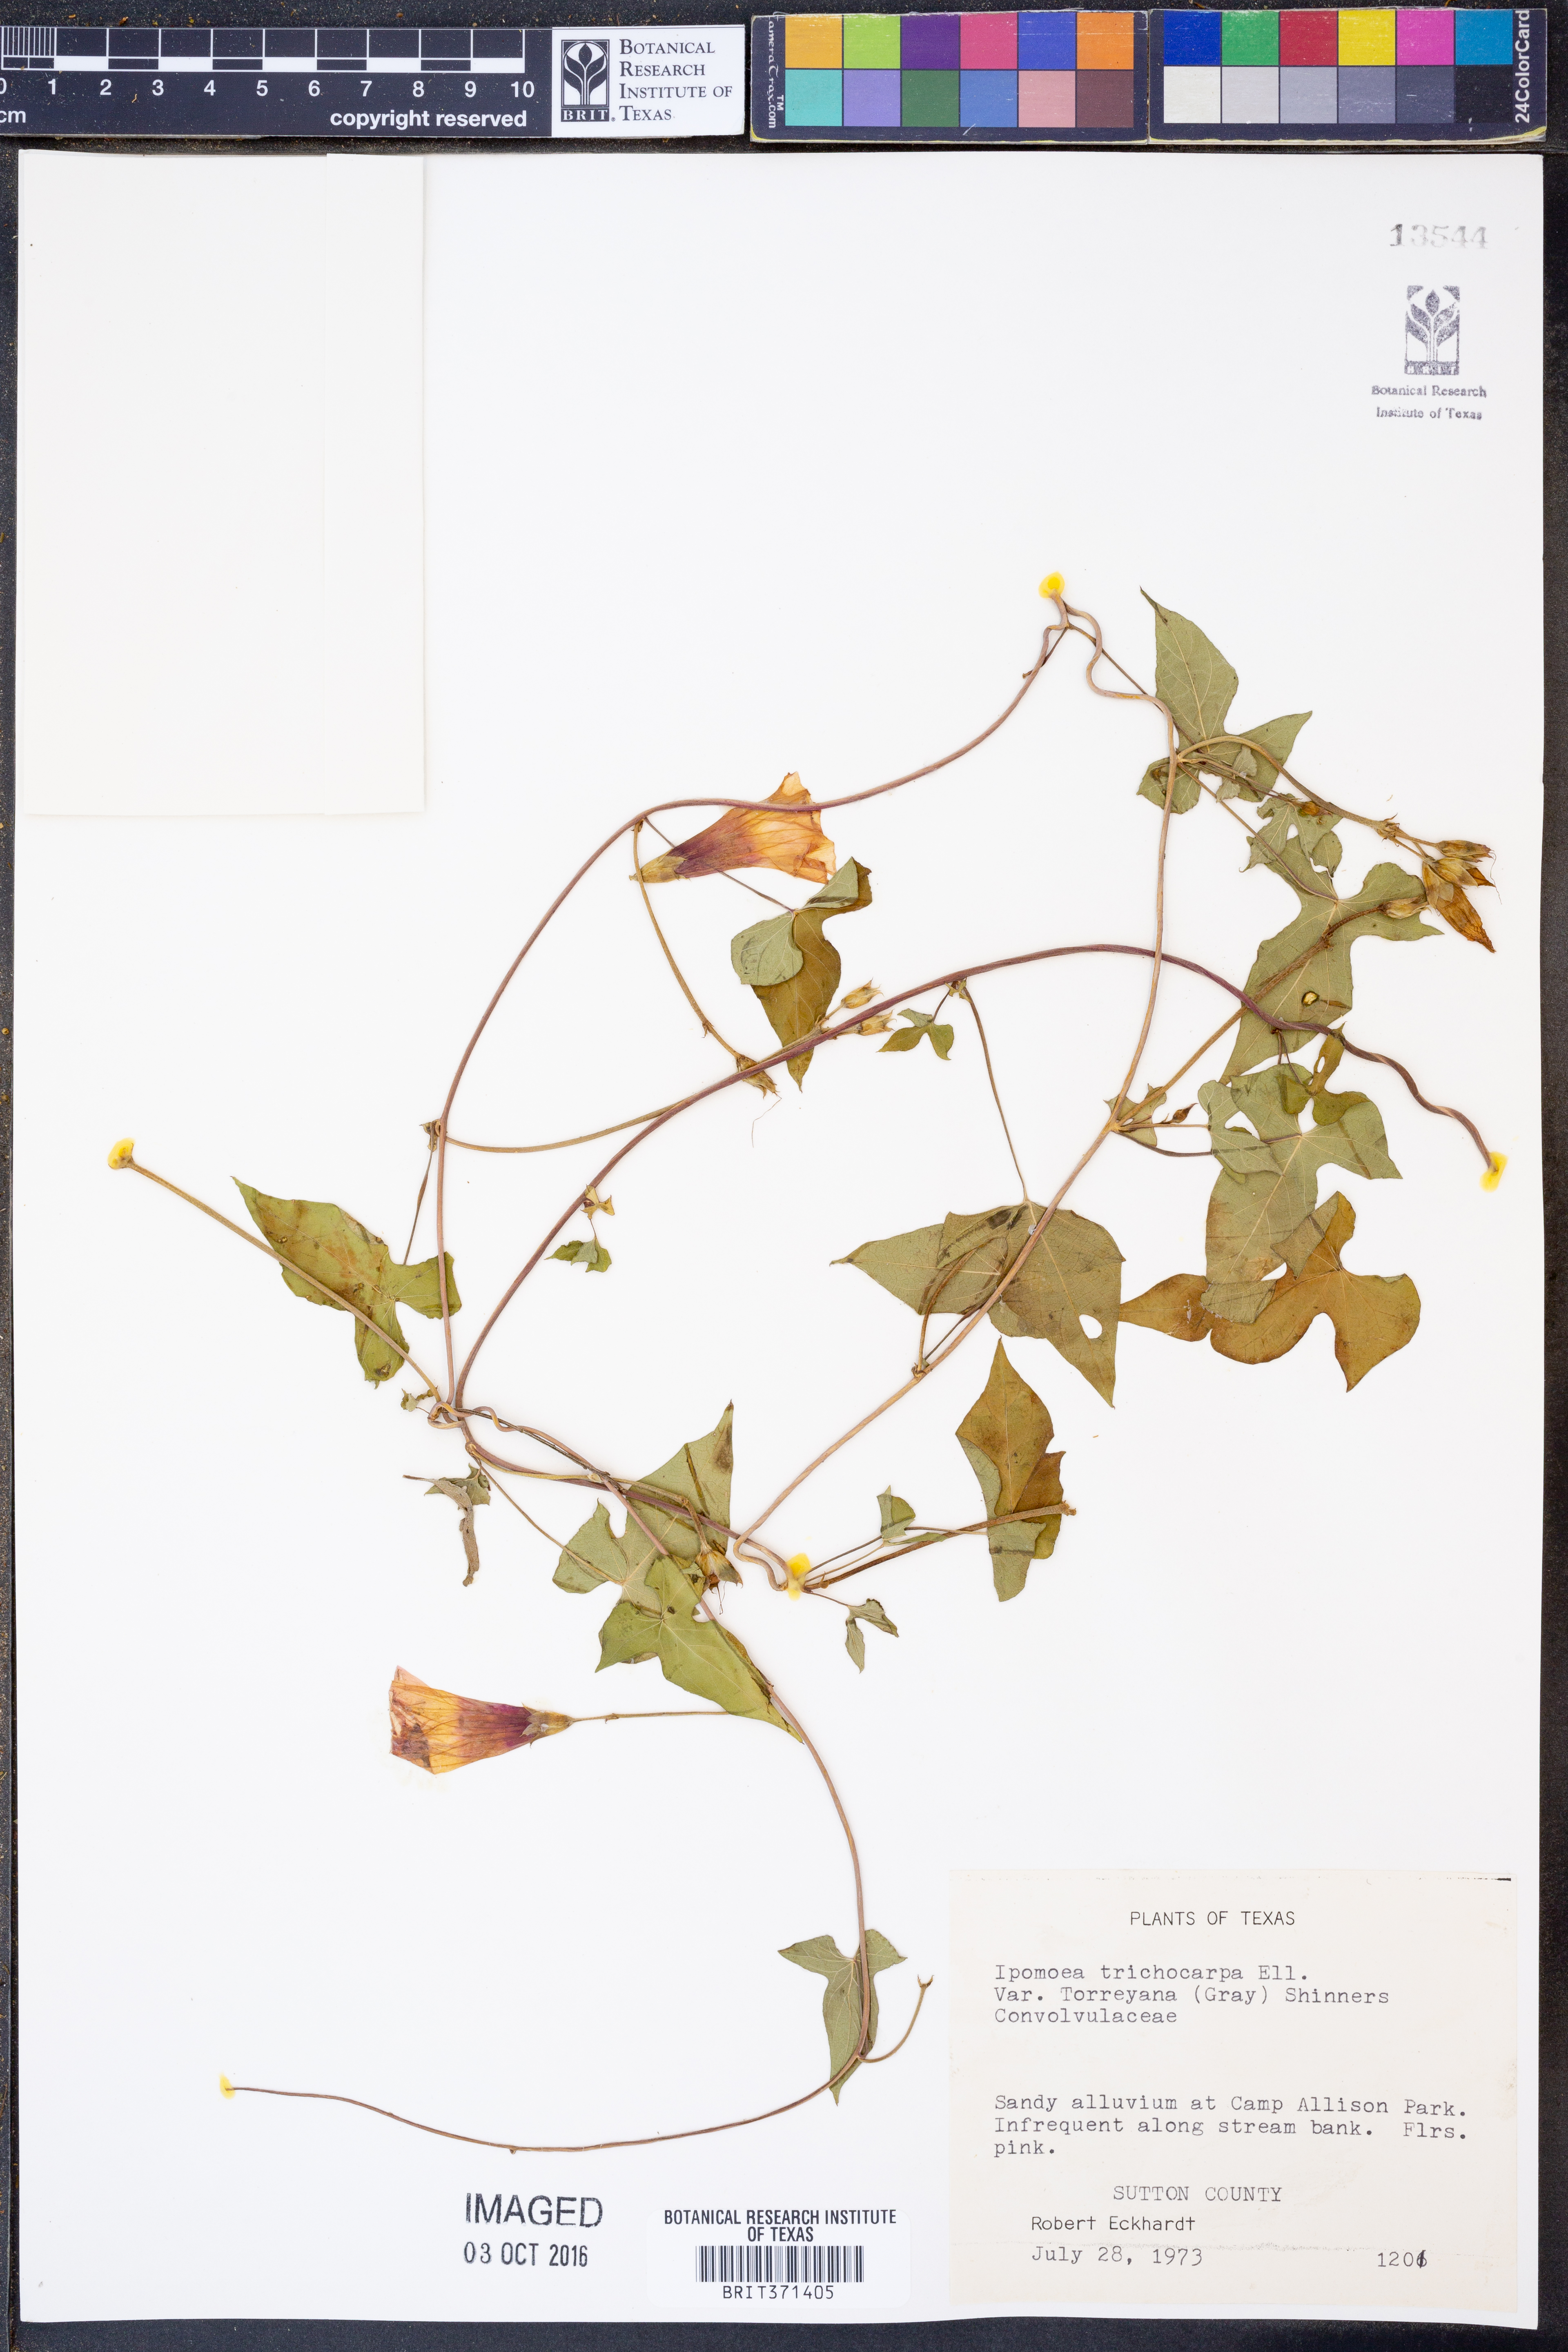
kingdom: Plantae
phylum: Tracheophyta
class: Magnoliopsida
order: Solanales
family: Convolvulaceae
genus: Ipomoea
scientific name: Ipomoea cordatotriloba
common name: Cotton morning glory
